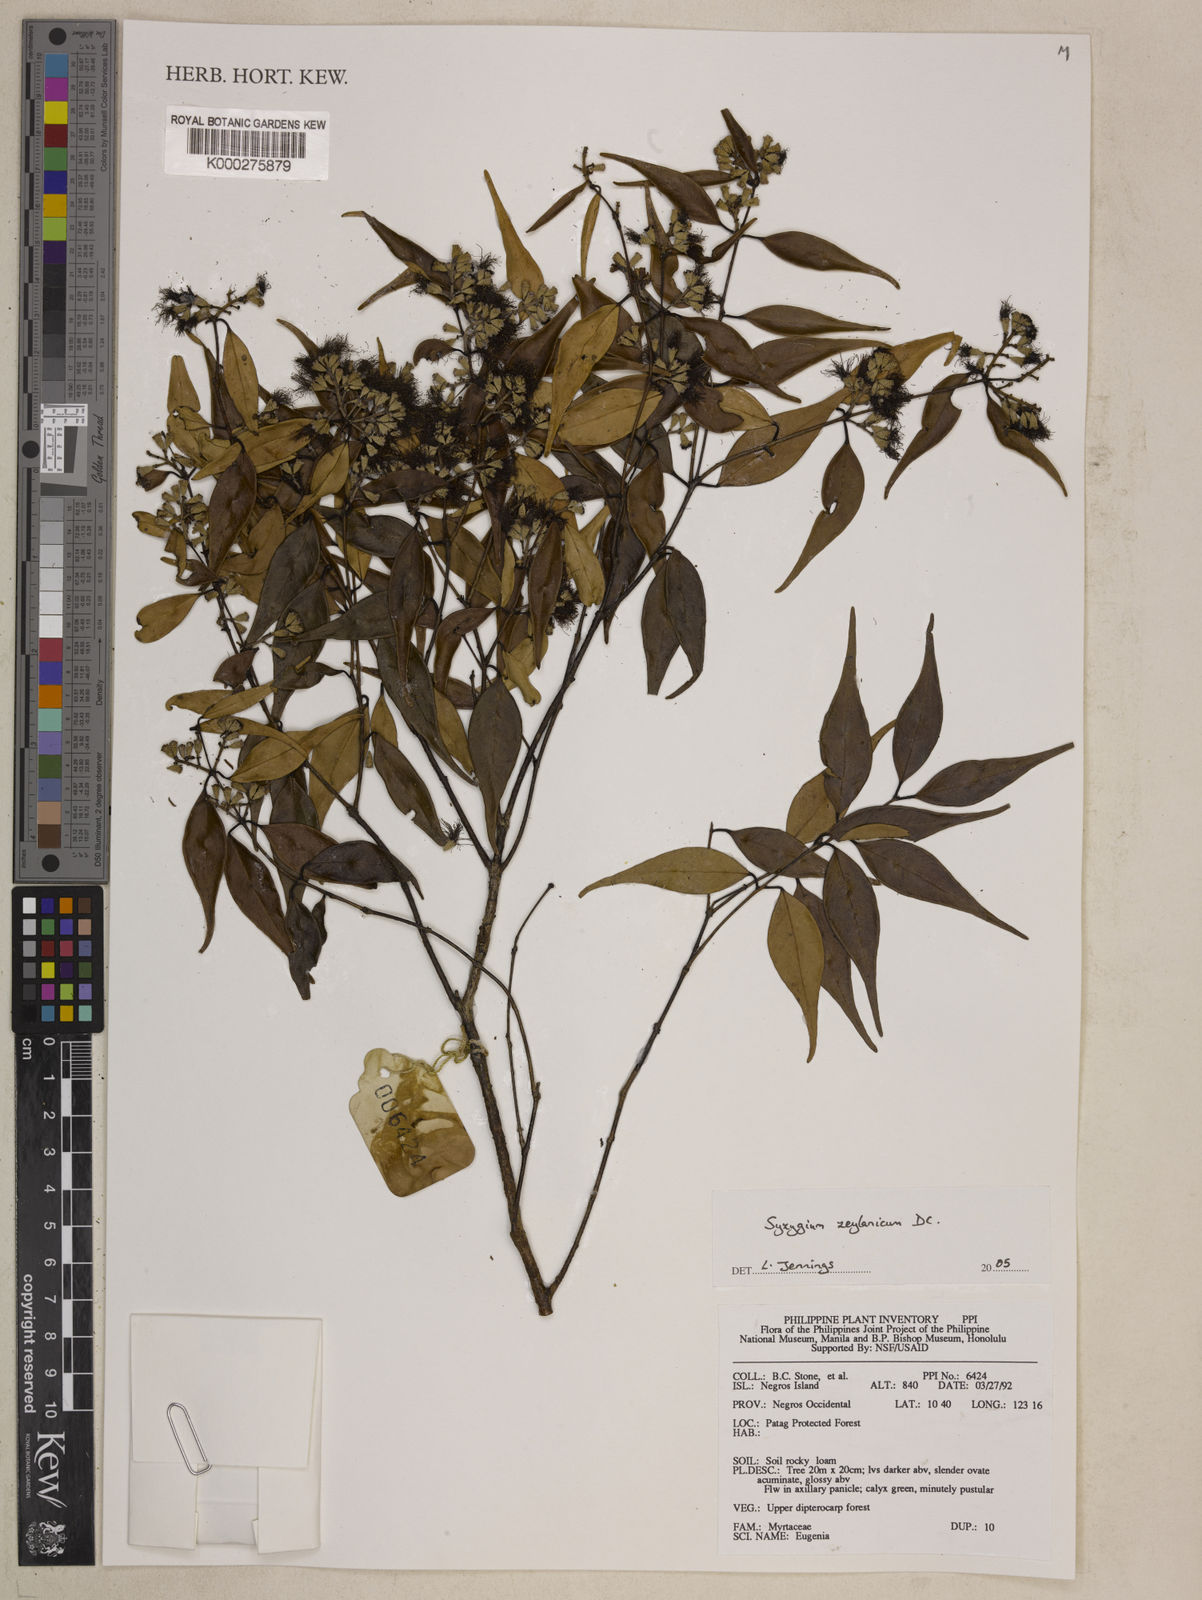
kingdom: Plantae
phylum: Tracheophyta
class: Magnoliopsida
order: Myrtales
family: Myrtaceae
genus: Syzygium
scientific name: Syzygium zeylanicum
